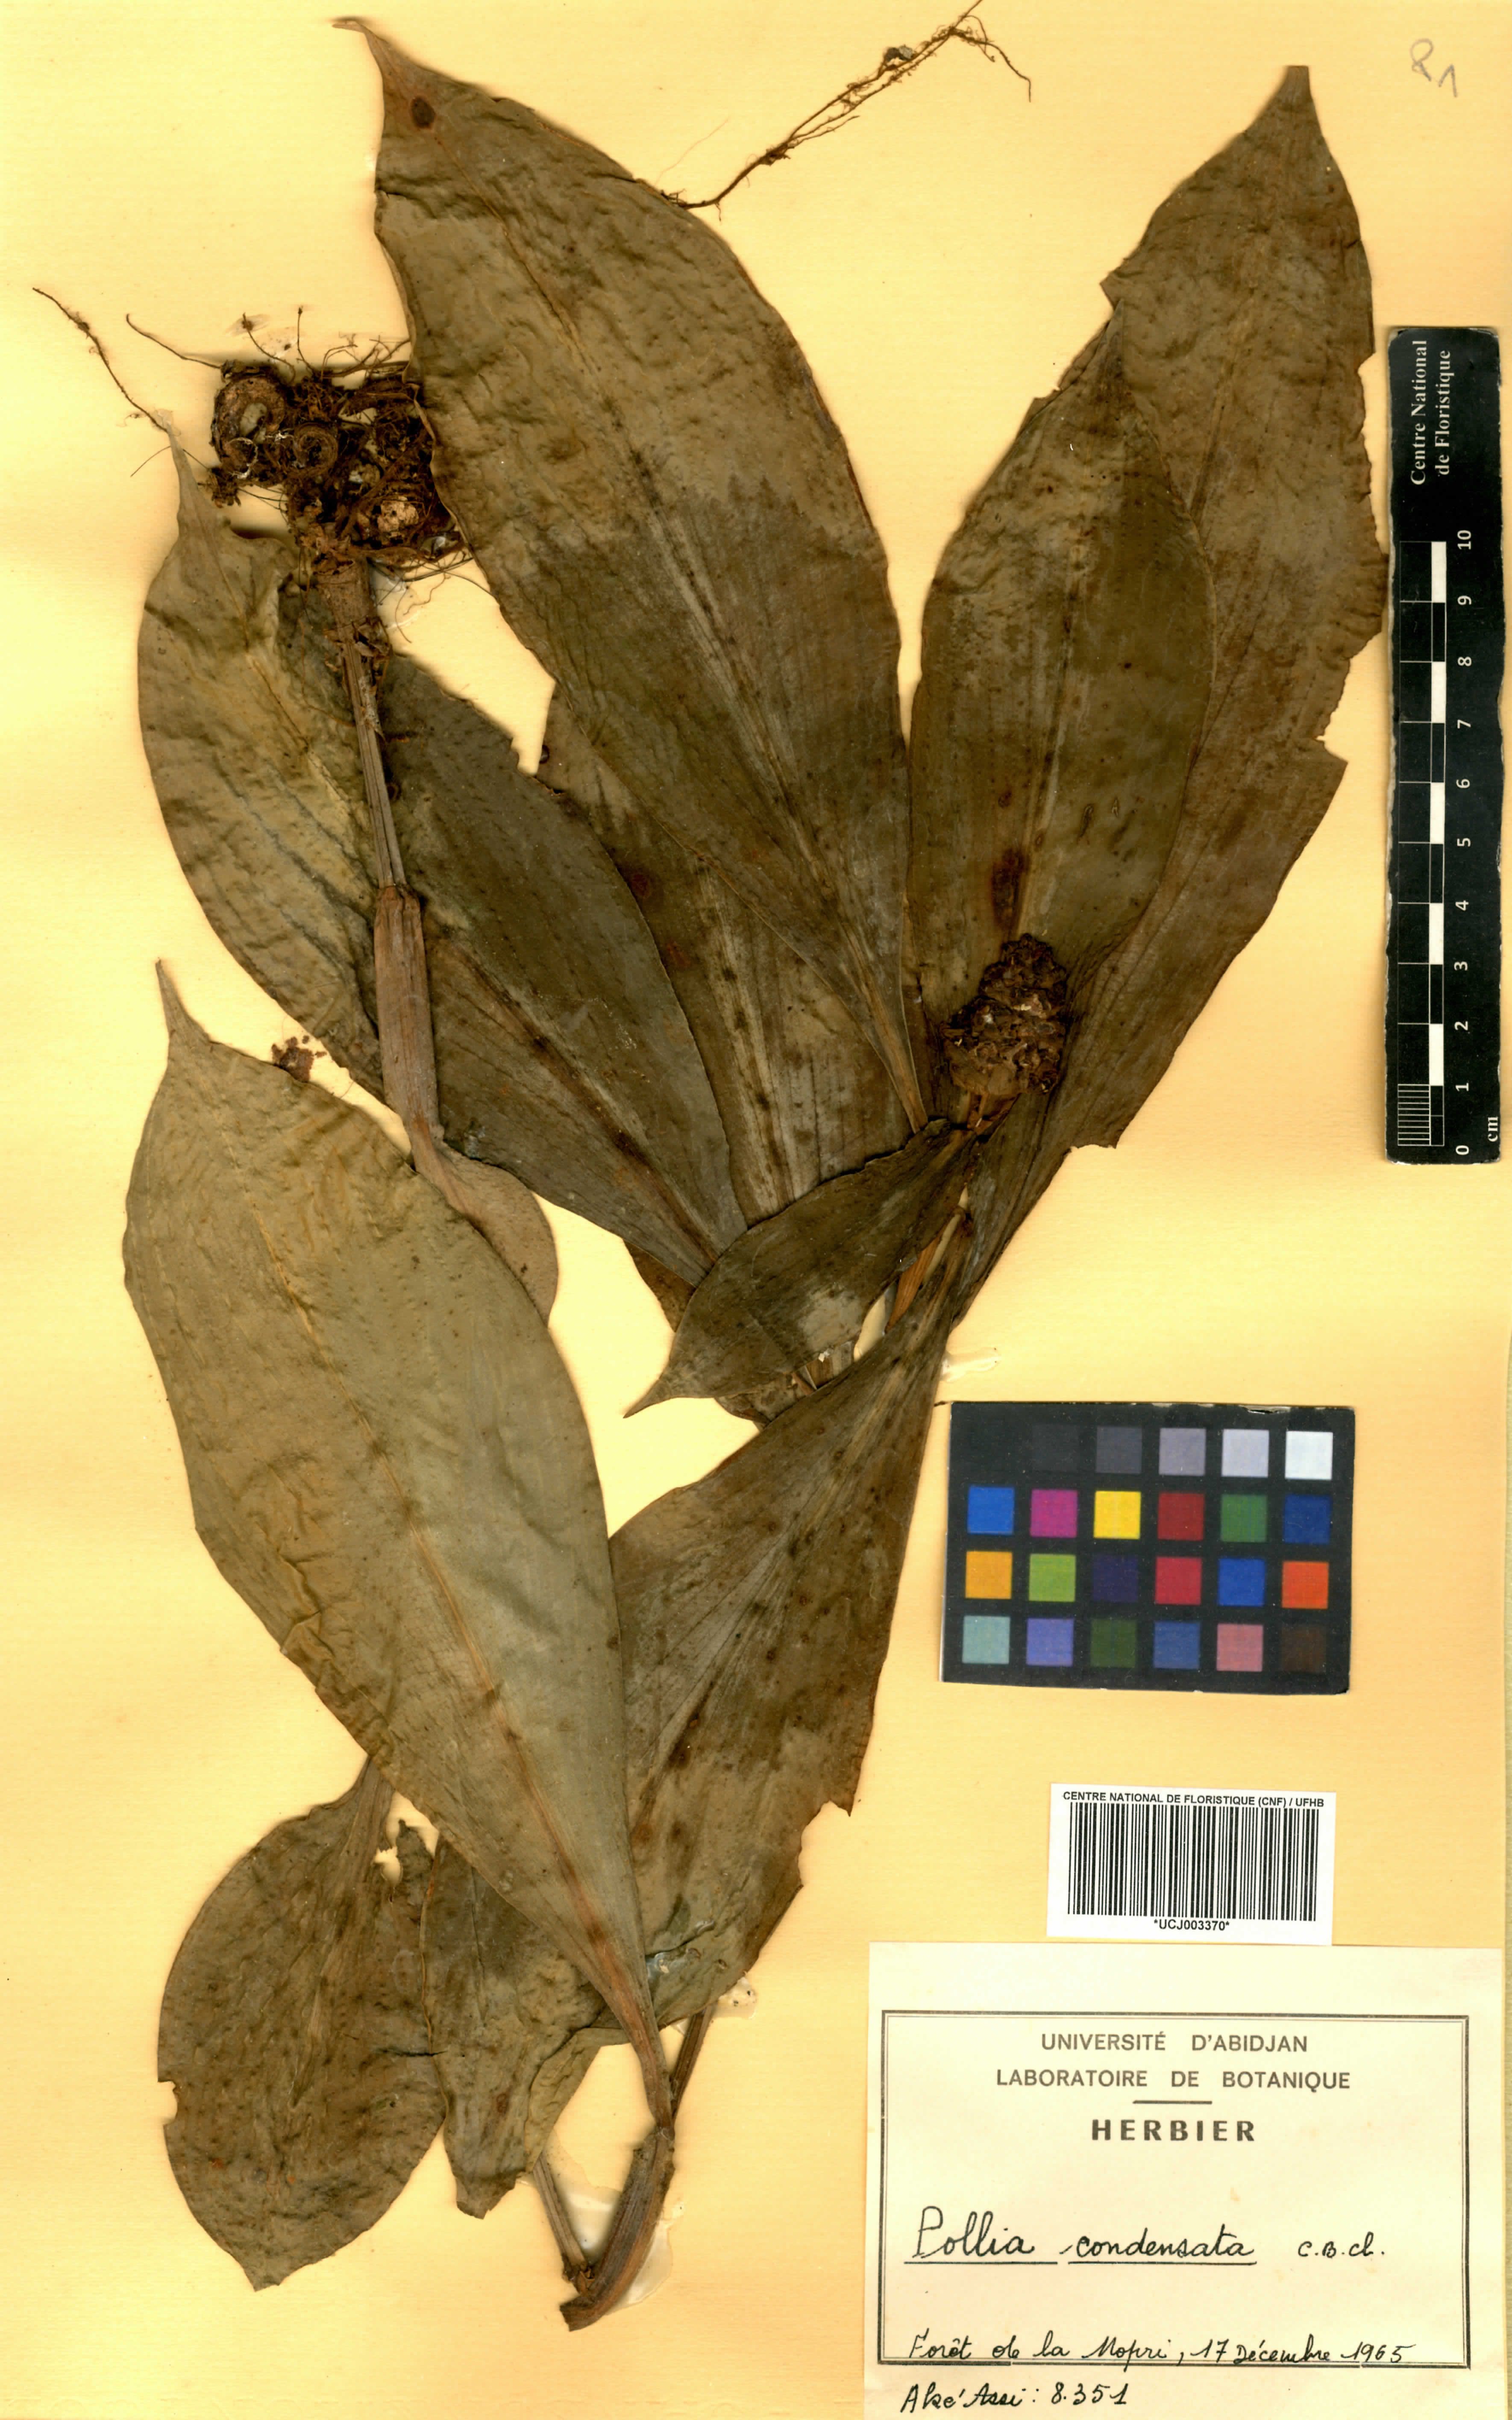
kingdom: Plantae
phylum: Tracheophyta
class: Liliopsida
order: Commelinales
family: Commelinaceae
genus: Pollia
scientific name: Pollia condensata
